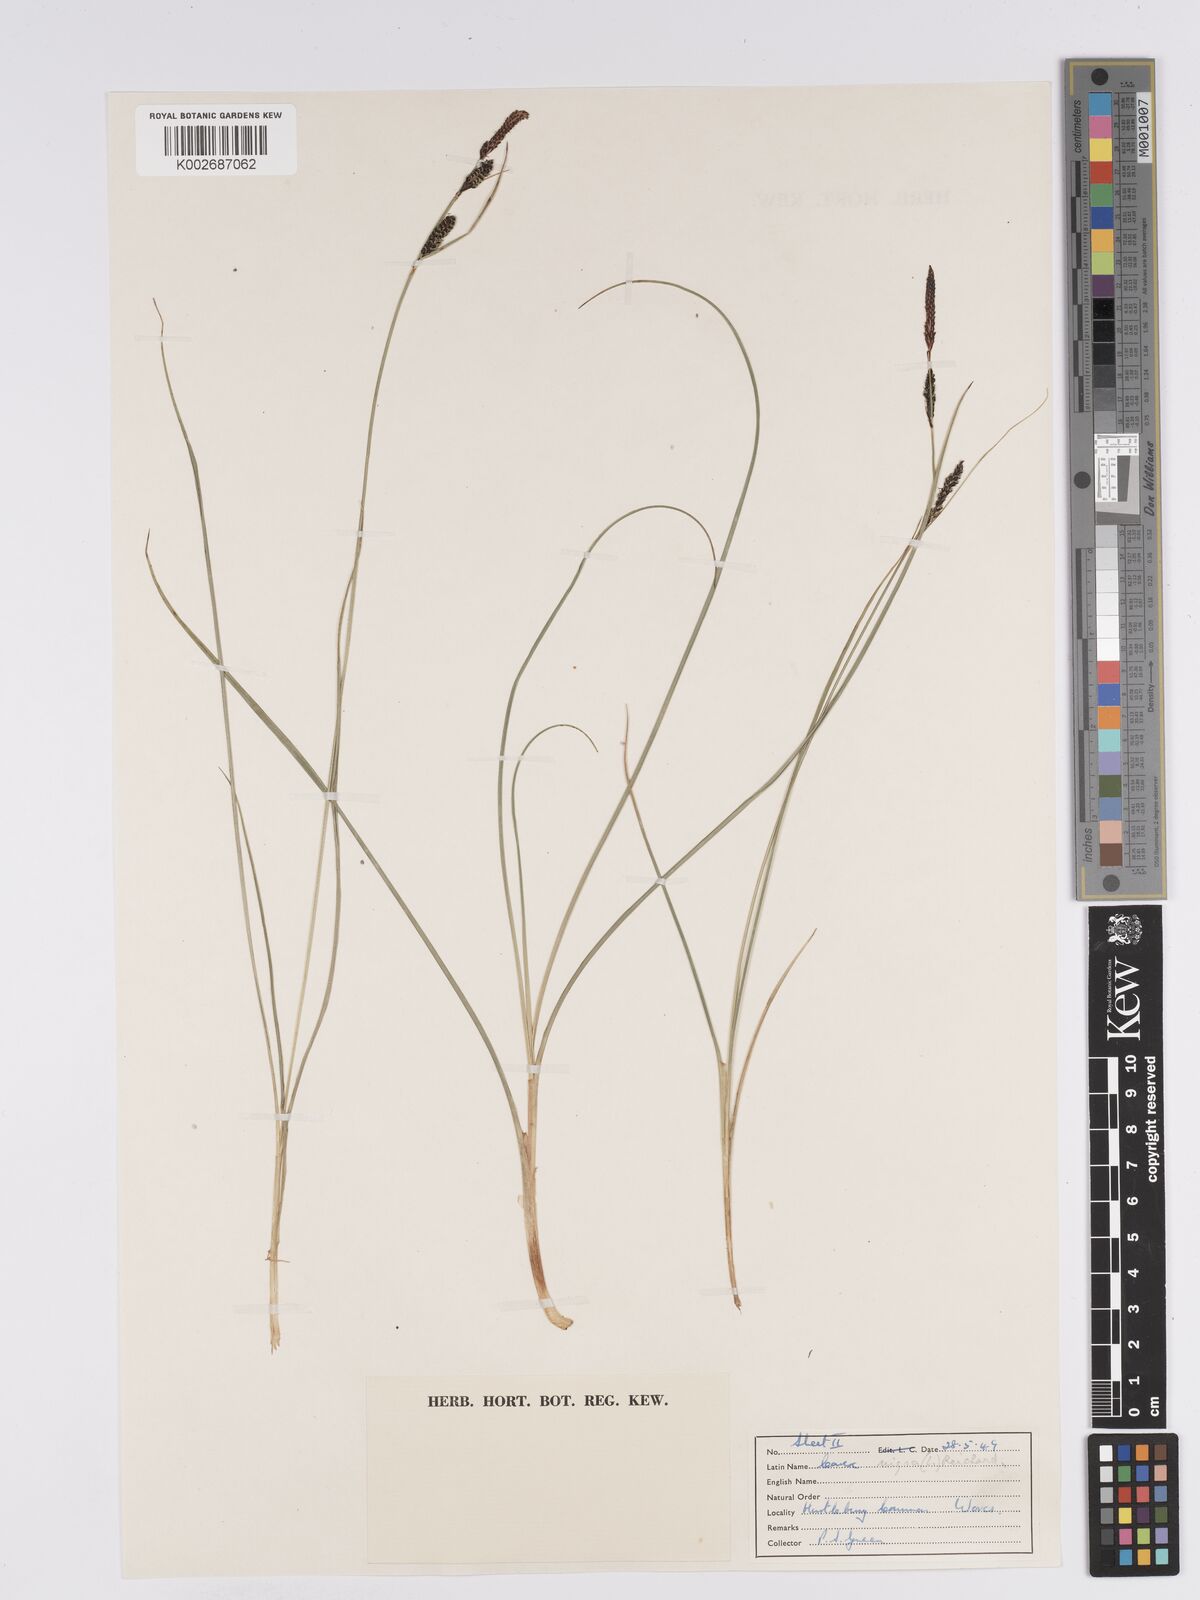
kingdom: Plantae
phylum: Tracheophyta
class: Liliopsida
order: Poales
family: Cyperaceae
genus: Carex
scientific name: Carex nigra
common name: Common sedge
